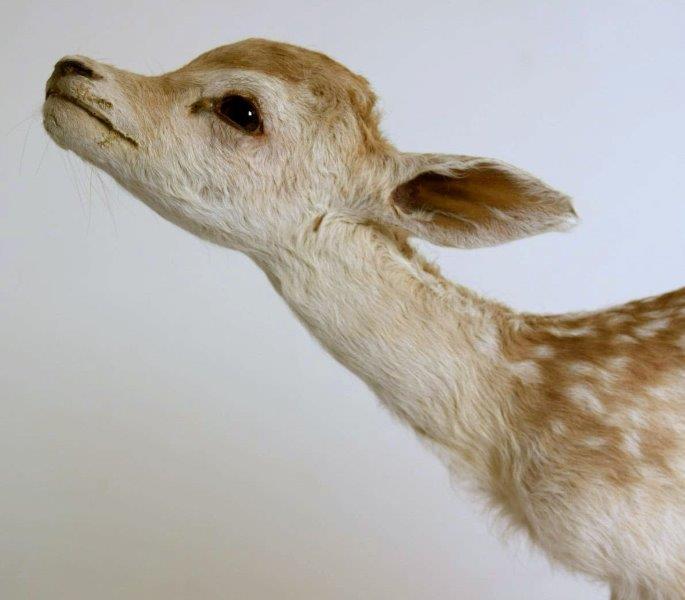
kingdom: Animalia
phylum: Chordata
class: Mammalia
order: Artiodactyla
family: Cervidae
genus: Dama
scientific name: Dama dama
